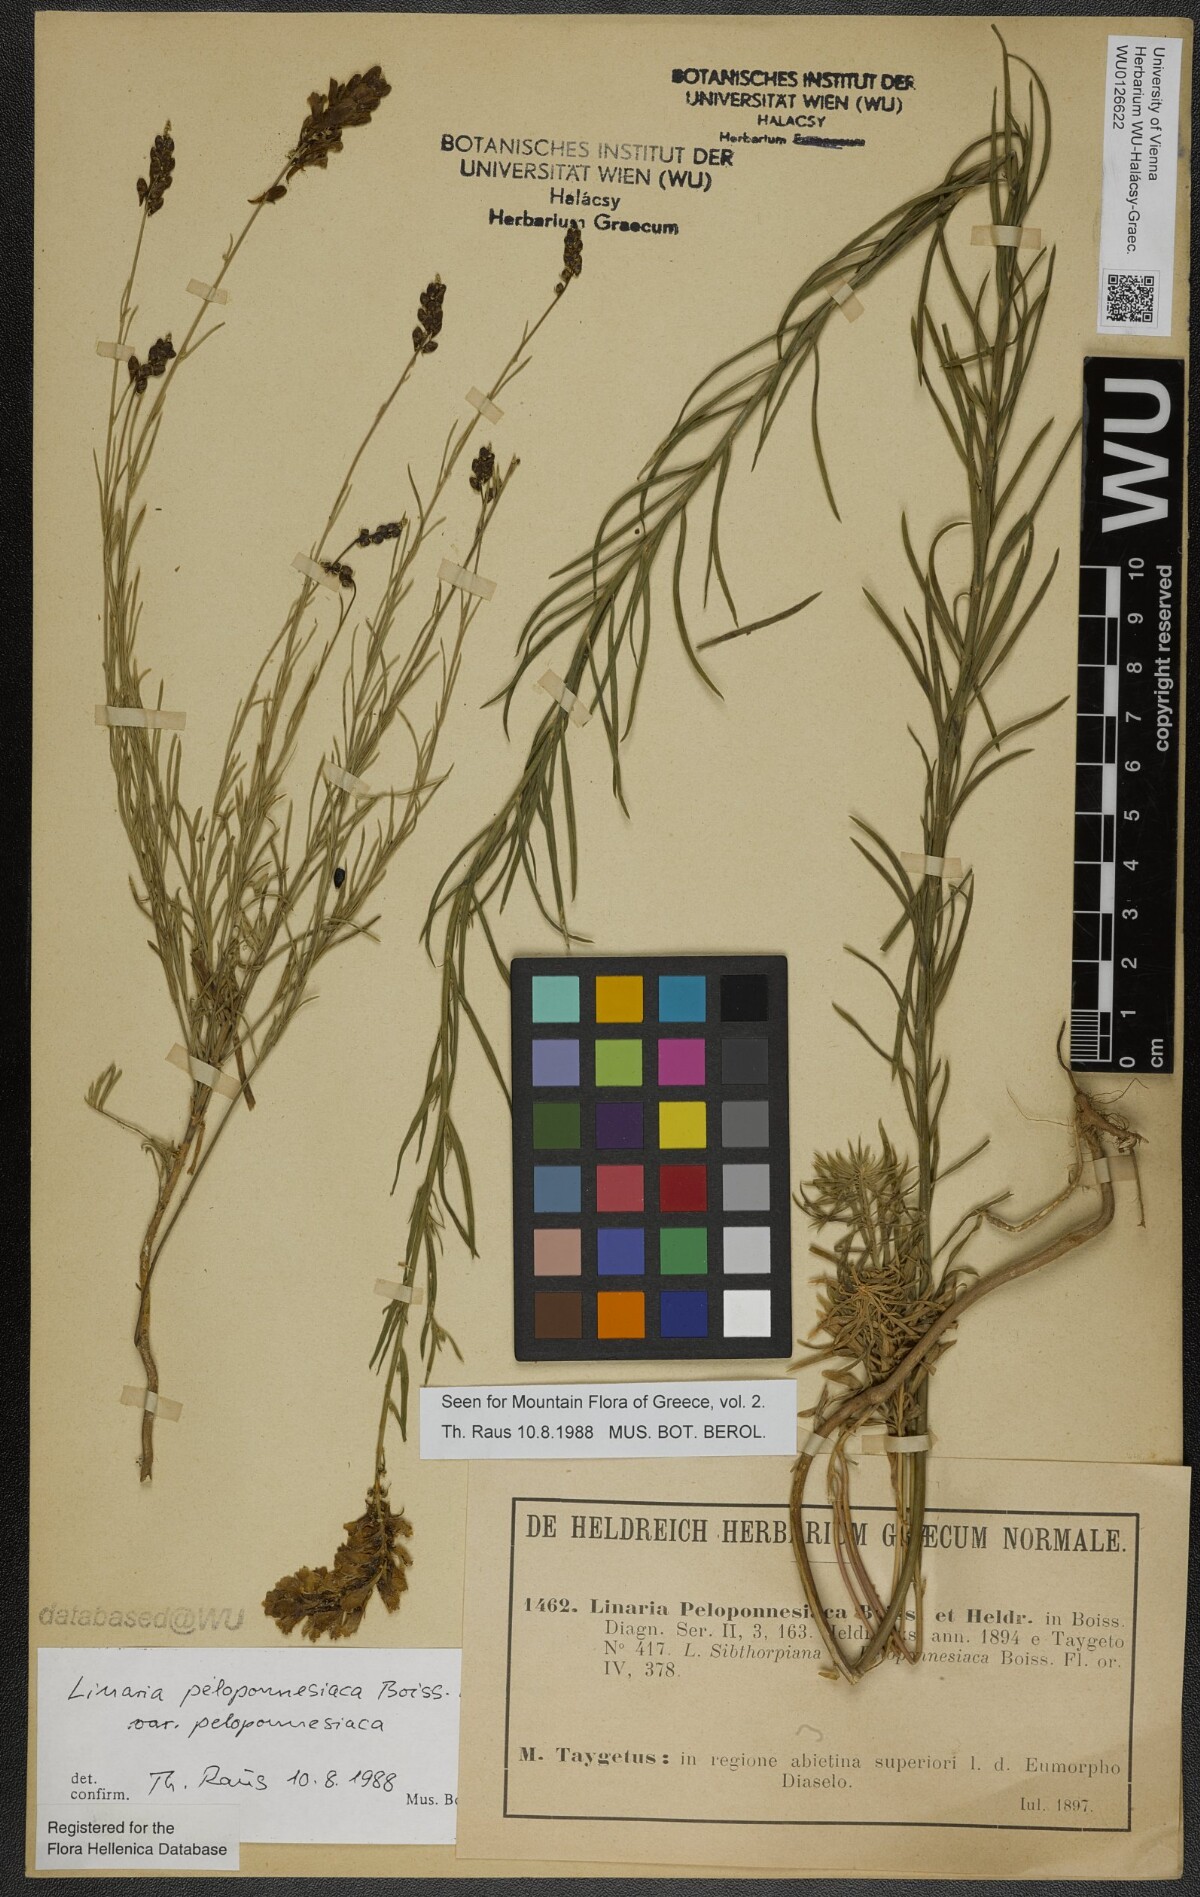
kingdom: Plantae
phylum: Tracheophyta
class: Magnoliopsida
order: Lamiales
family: Plantaginaceae
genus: Linaria
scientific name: Linaria peloponnesiaca
